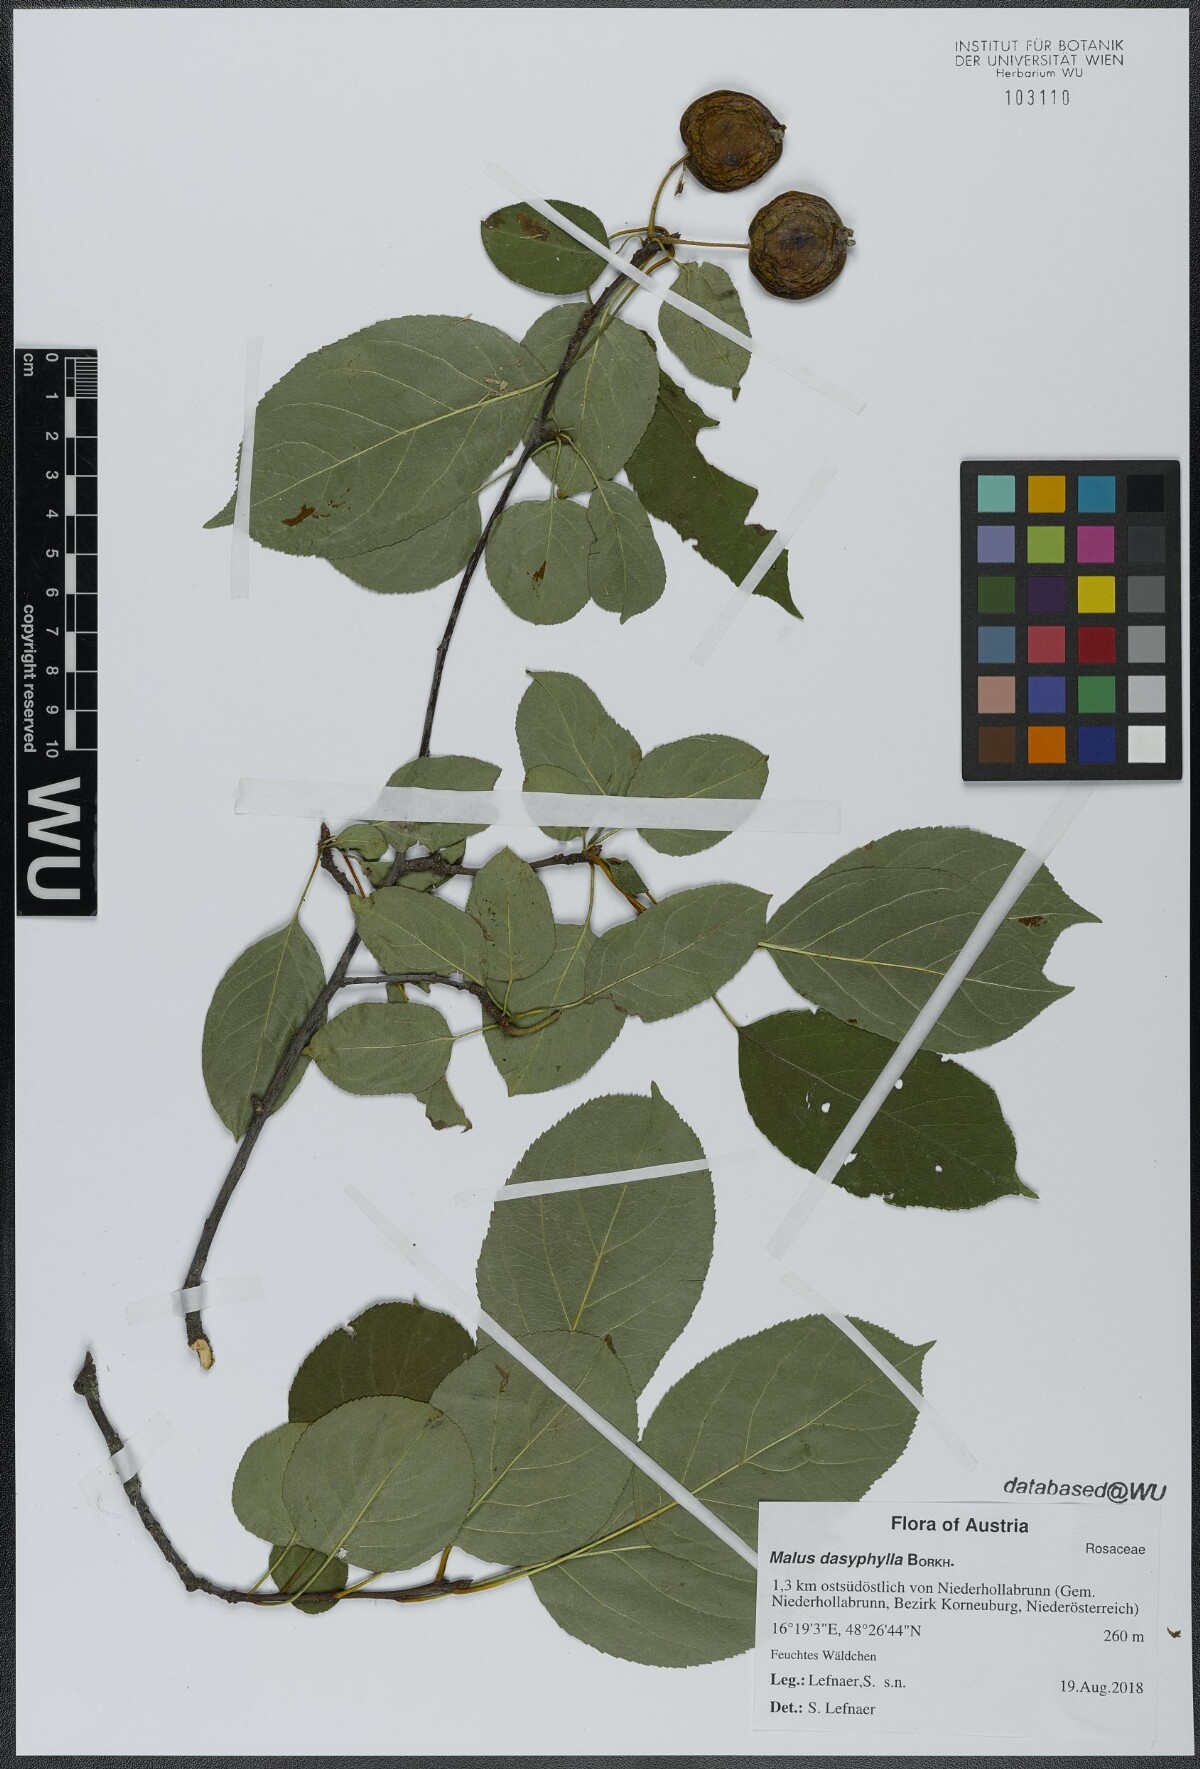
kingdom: Plantae
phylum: Tracheophyta
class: Magnoliopsida
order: Rosales
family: Rosaceae
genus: Malus
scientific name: Malus dasyphylla
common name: Paradise apple
